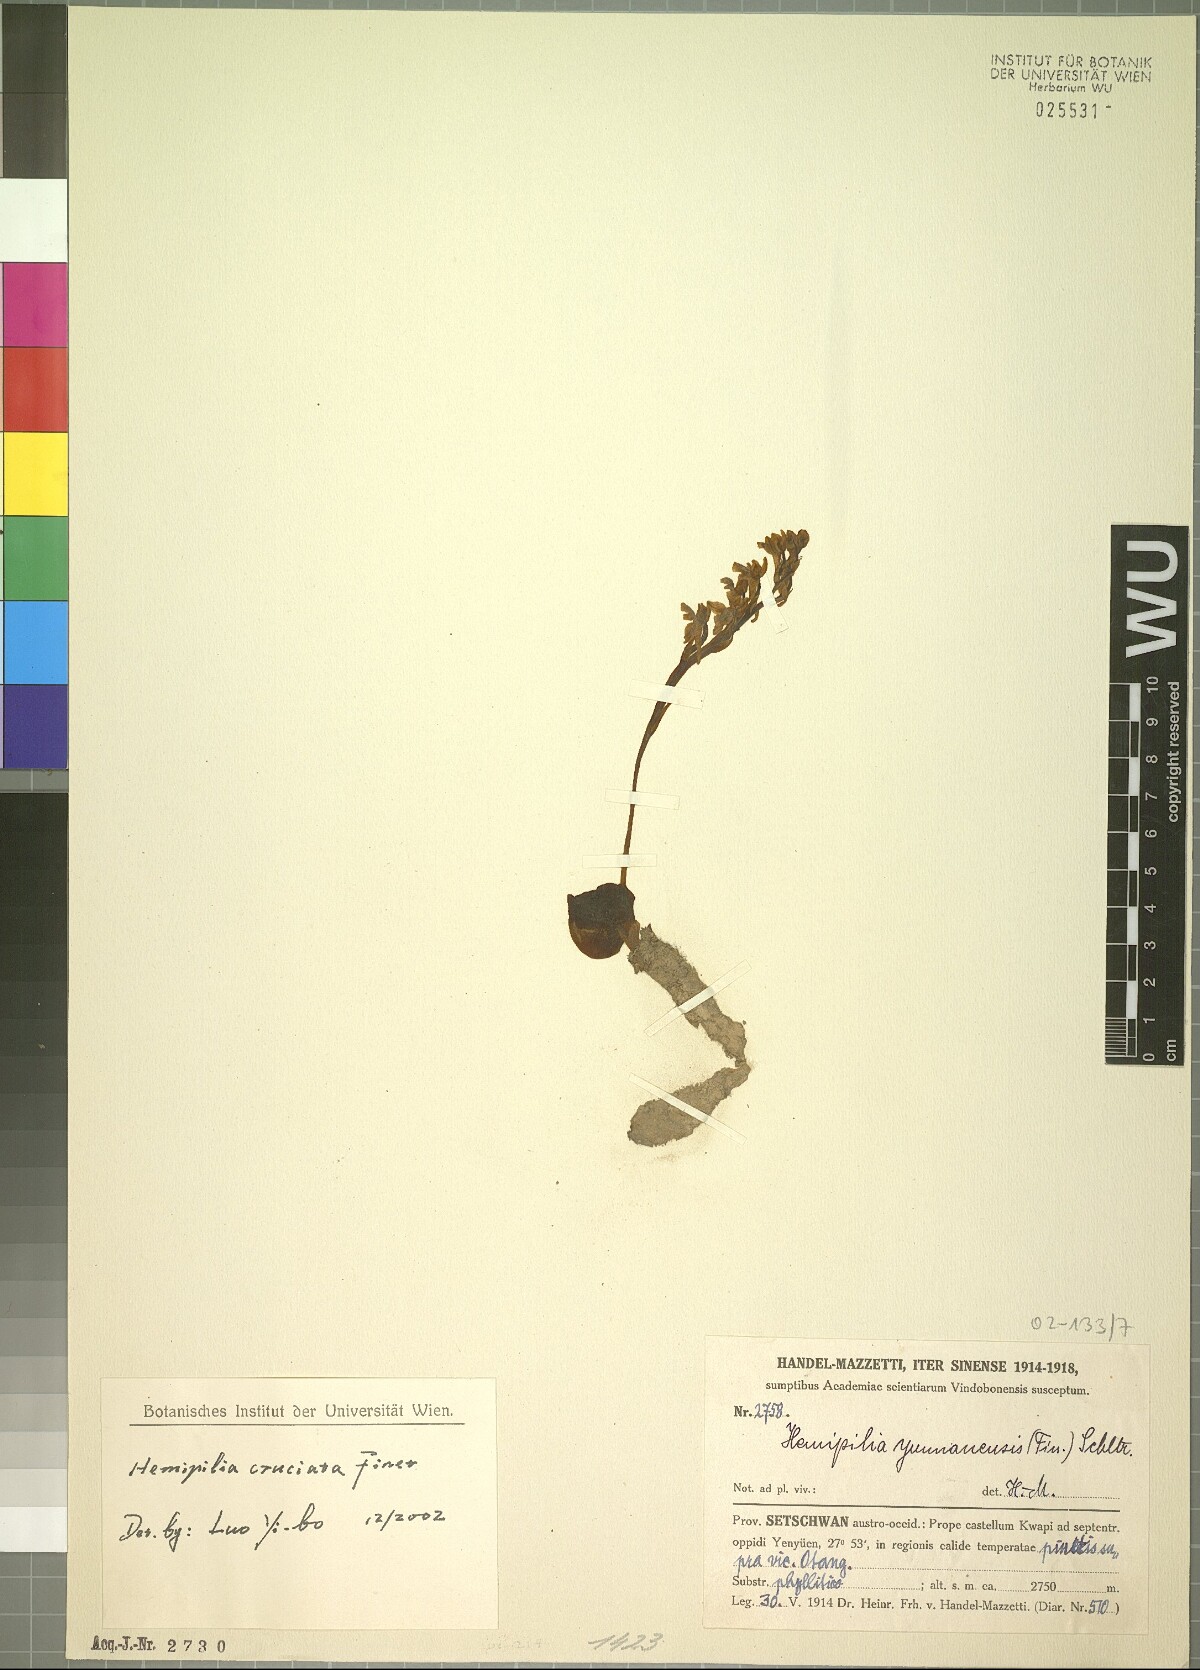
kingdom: Plantae
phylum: Tracheophyta
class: Liliopsida
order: Asparagales
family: Orchidaceae
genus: Hemipilia
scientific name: Hemipilia cordifolia
